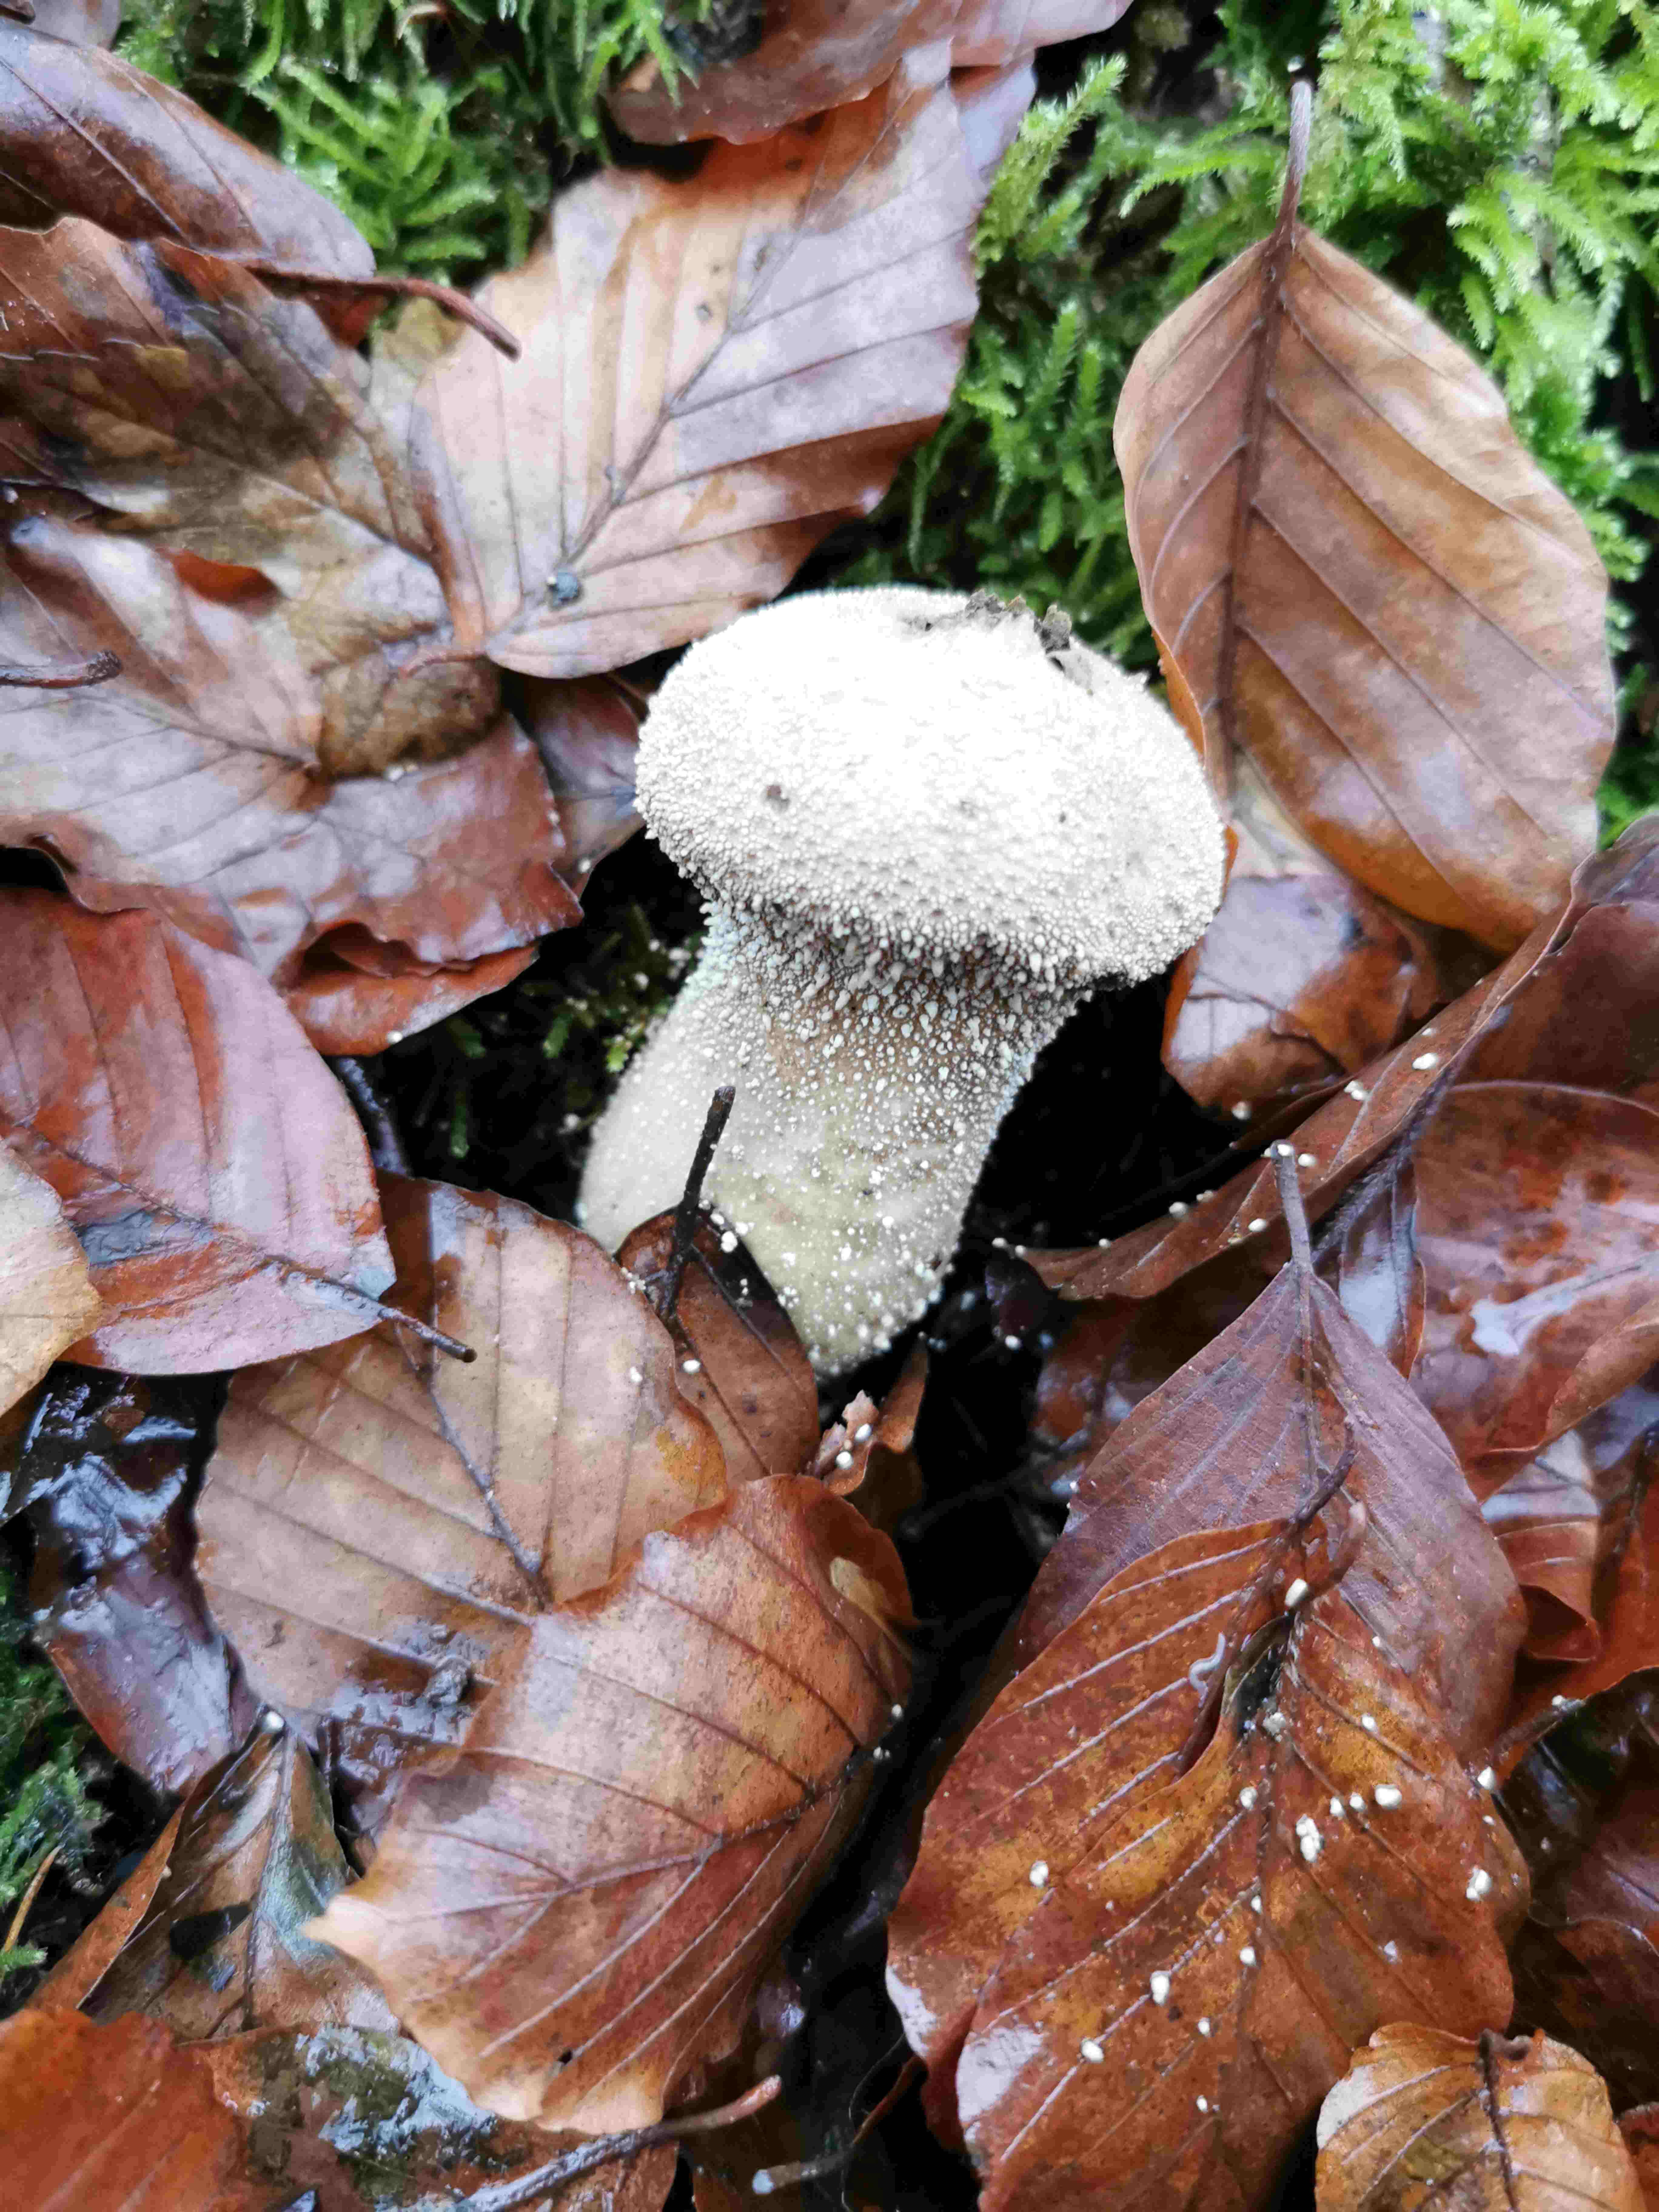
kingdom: Fungi
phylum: Basidiomycota
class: Agaricomycetes
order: Agaricales
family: Lycoperdaceae
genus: Lycoperdon
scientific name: Lycoperdon perlatum
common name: krystal-støvbold
